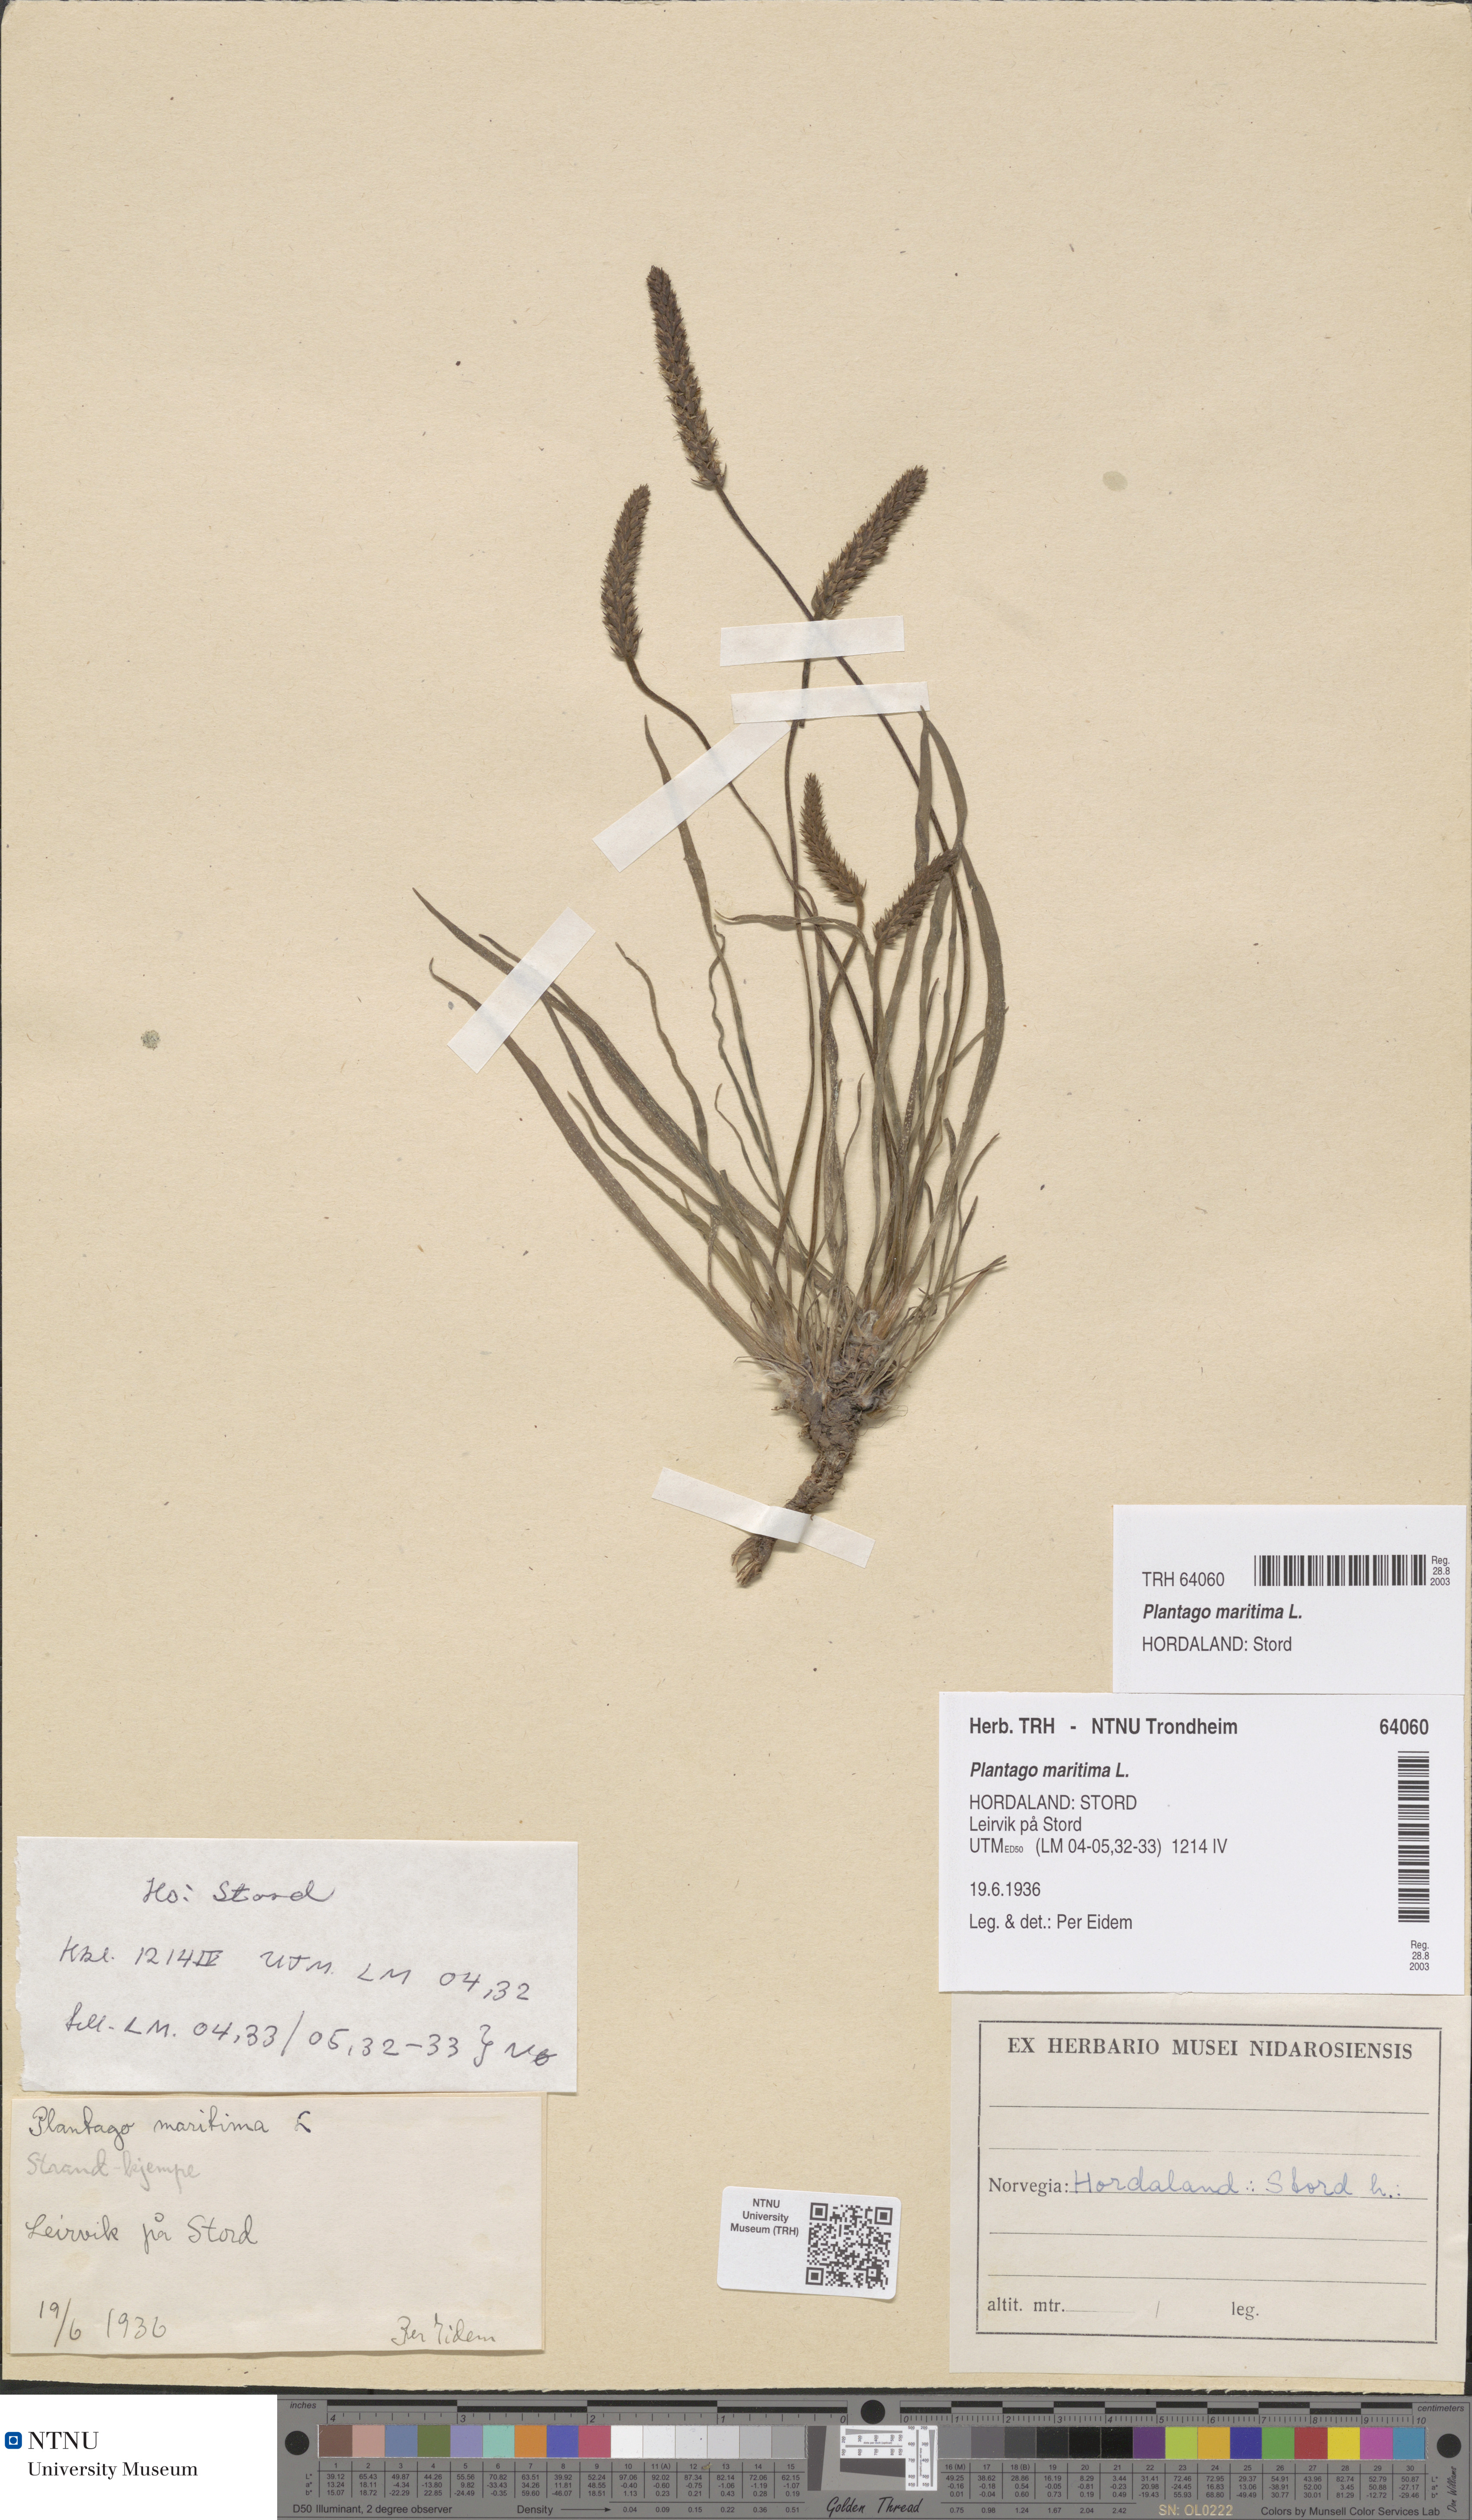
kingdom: Plantae
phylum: Tracheophyta
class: Magnoliopsida
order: Lamiales
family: Plantaginaceae
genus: Plantago
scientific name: Plantago maritima
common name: Sea plantain
